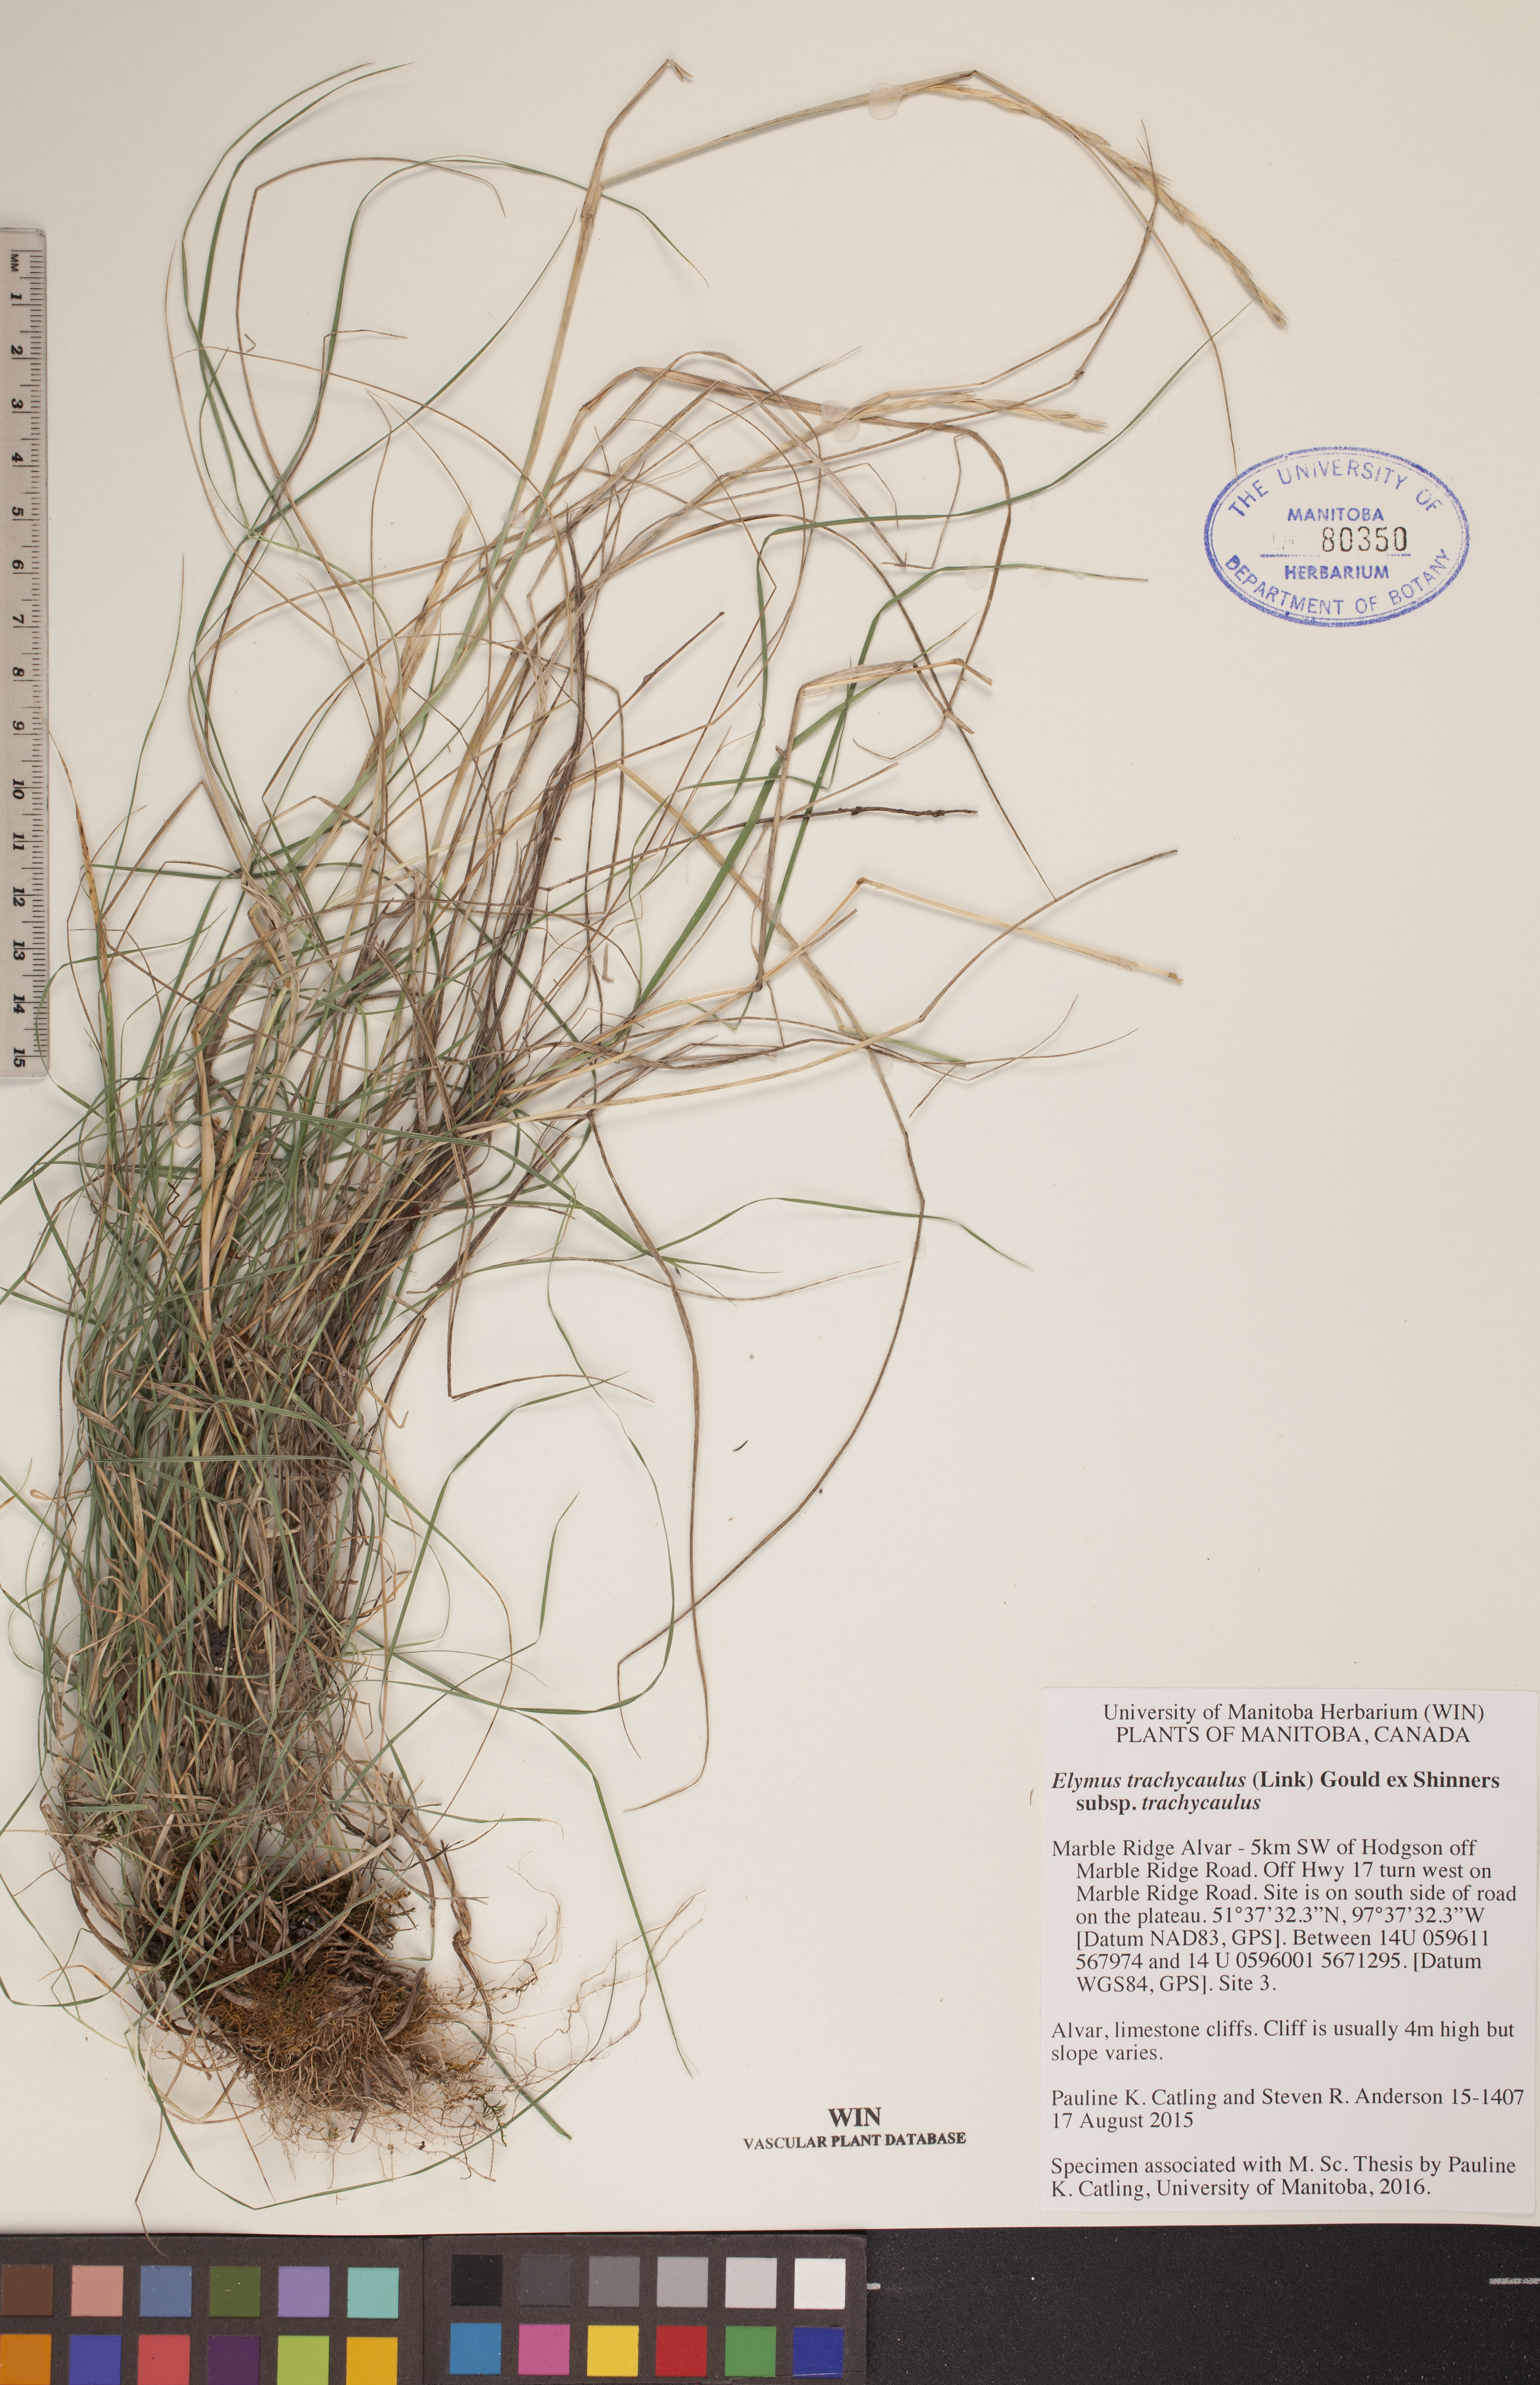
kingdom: Plantae
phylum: Tracheophyta
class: Liliopsida
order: Poales
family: Poaceae
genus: Elymus
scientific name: Elymus violaceus
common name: Arctic wheatgrass
